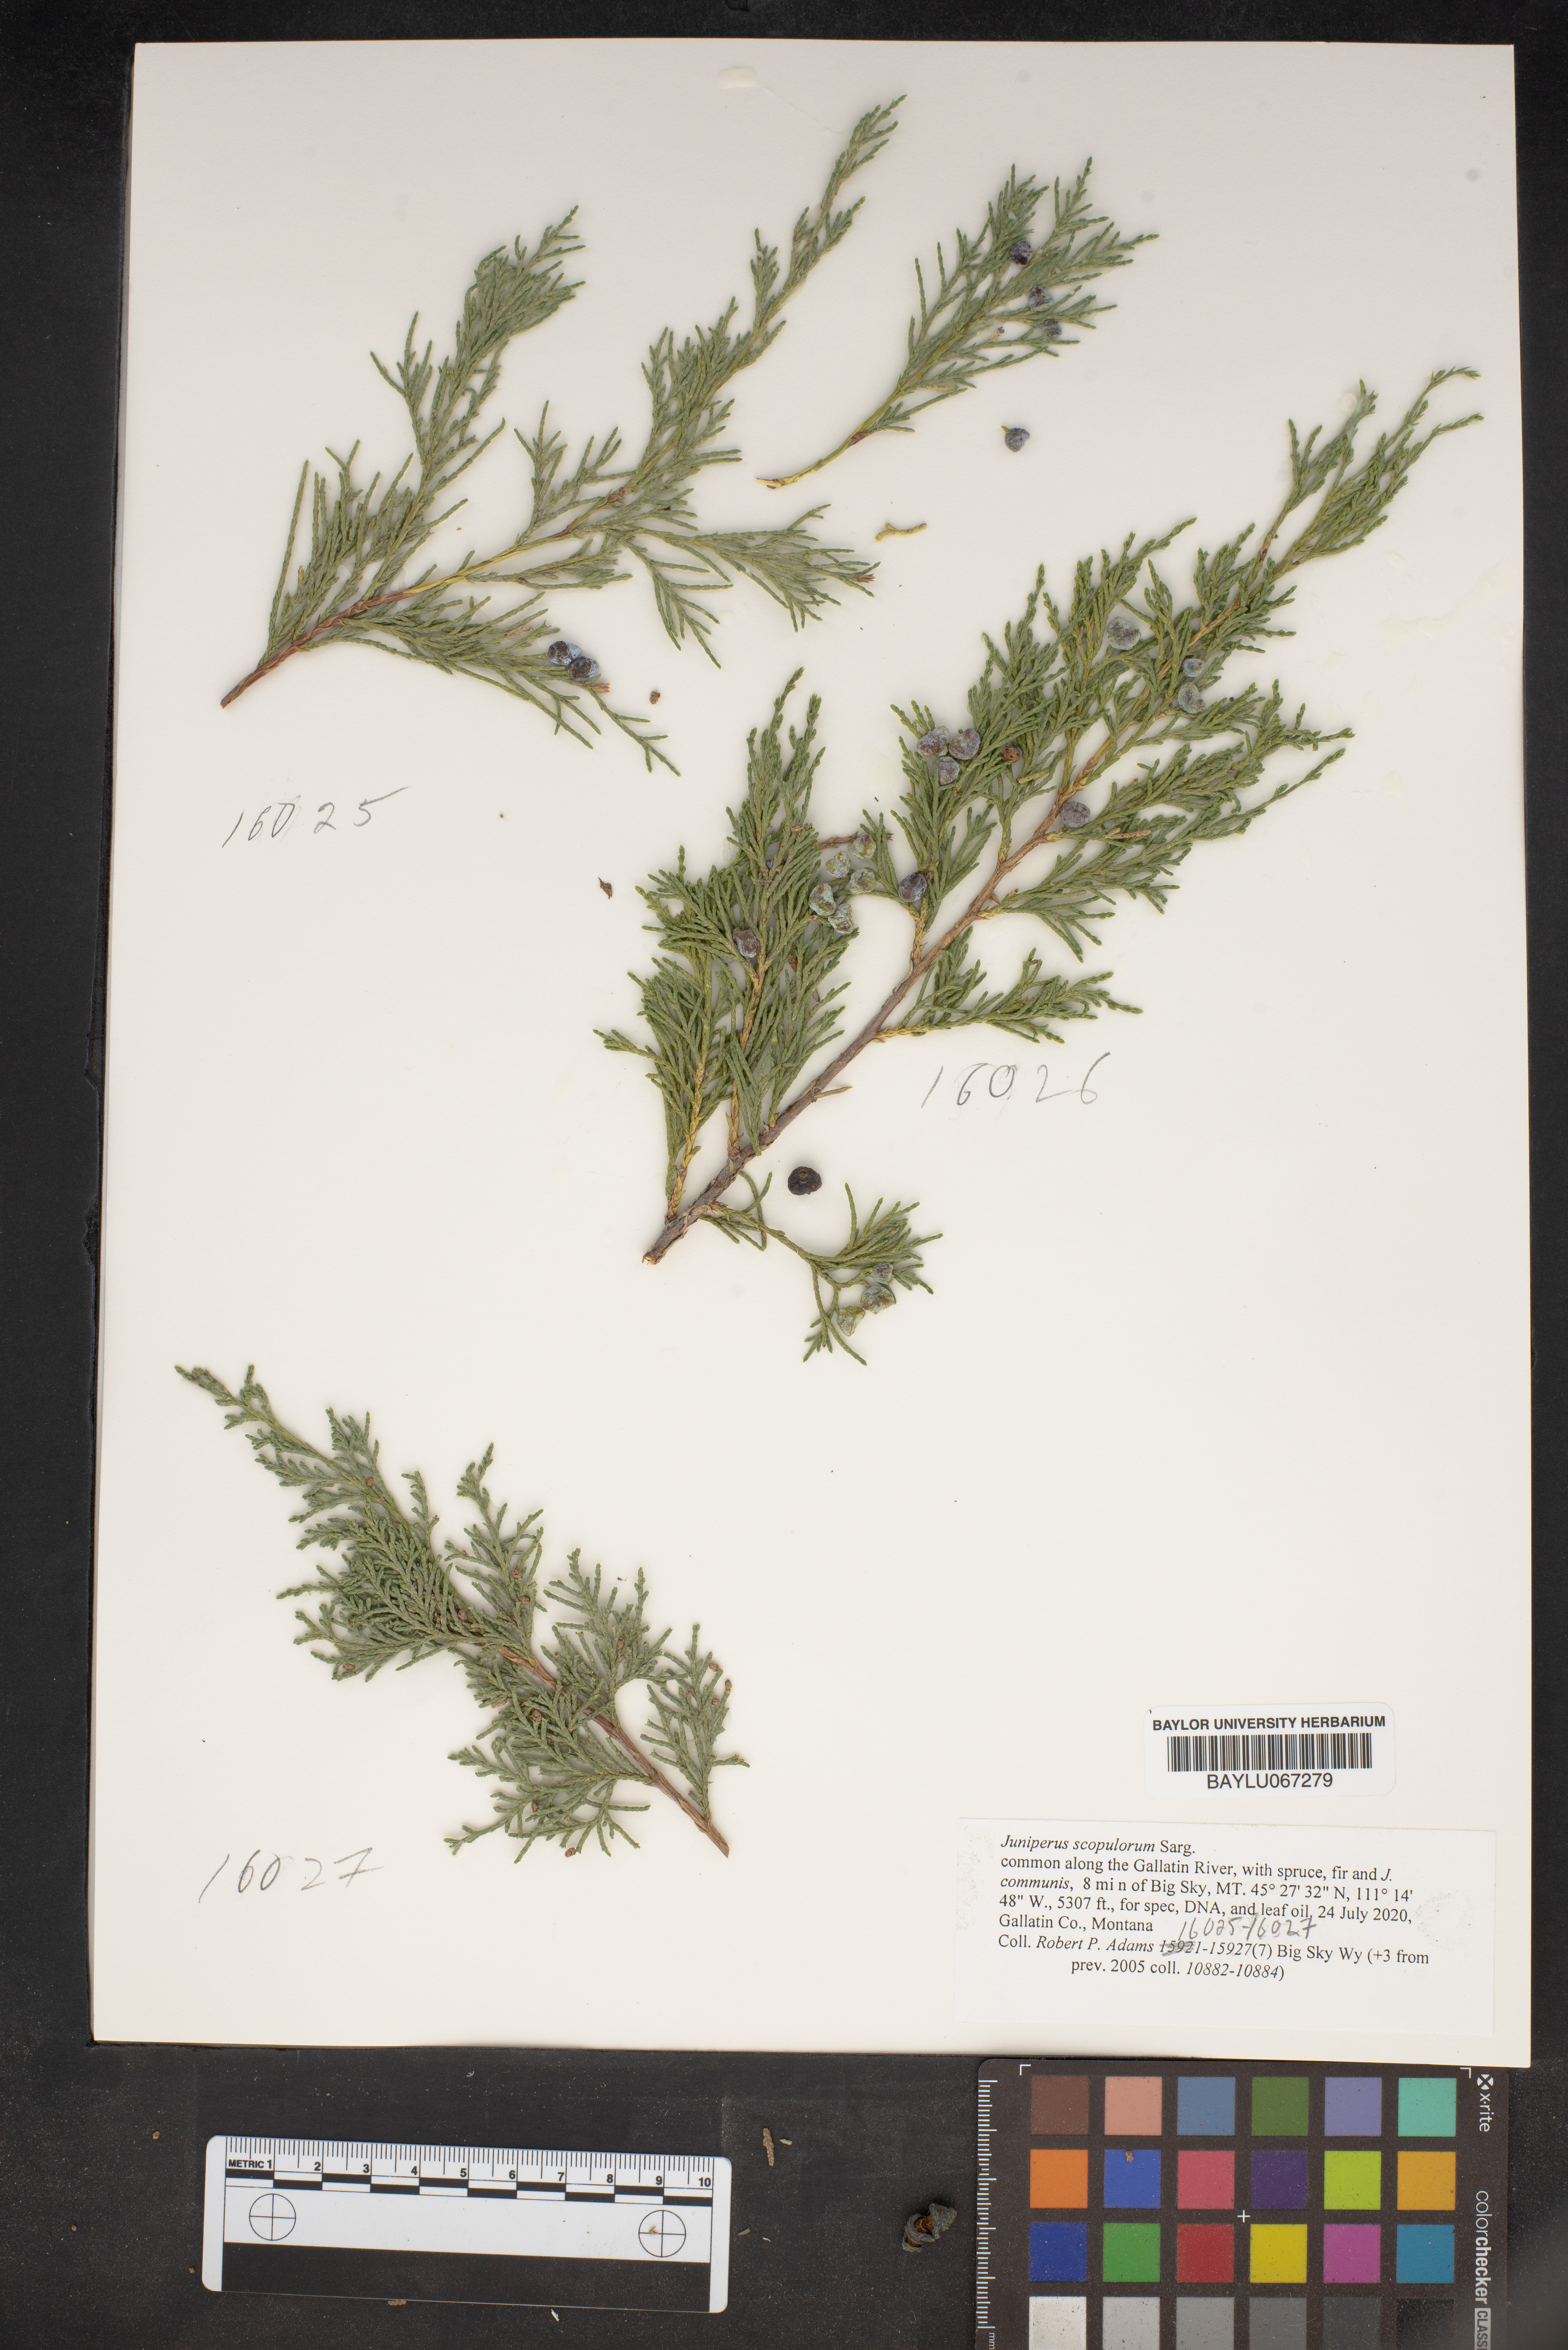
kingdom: Plantae
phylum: Tracheophyta
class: Pinopsida
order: Pinales
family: Cupressaceae
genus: Juniperus
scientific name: Juniperus scopulorum
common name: Rocky mountain juniper
